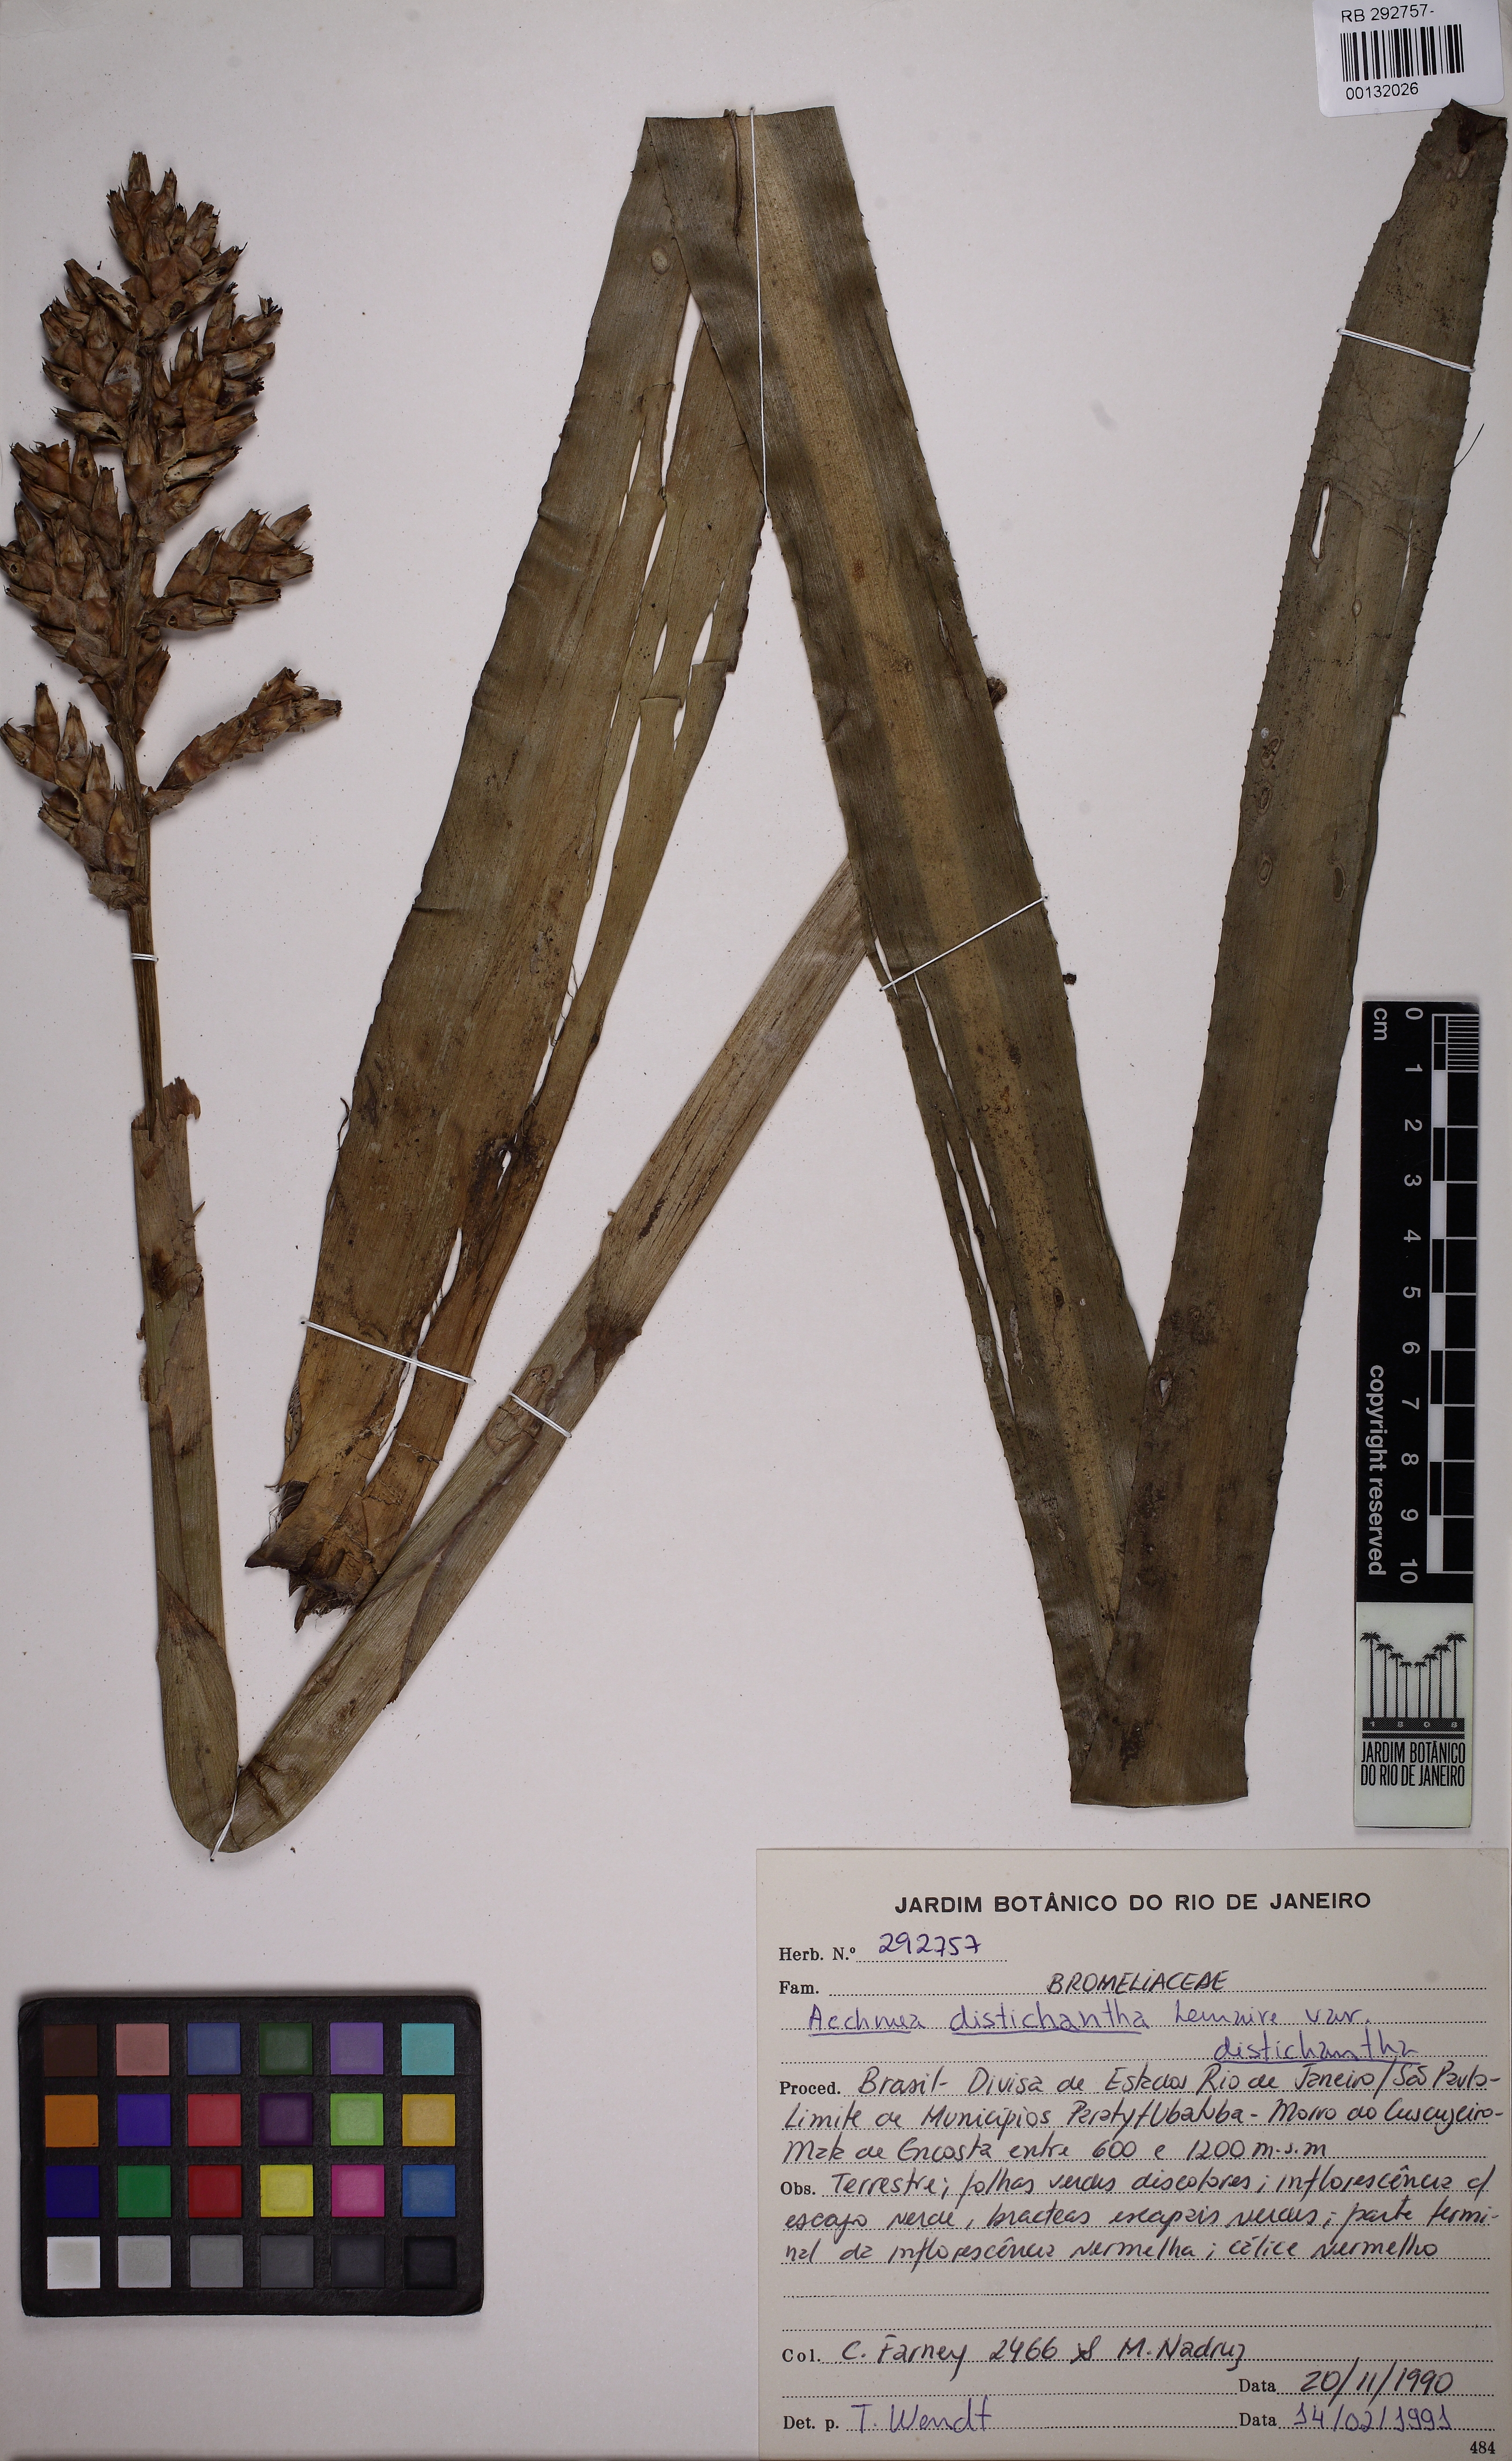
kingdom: Plantae
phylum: Tracheophyta
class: Liliopsida
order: Poales
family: Bromeliaceae
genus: Aechmea
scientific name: Aechmea distichantha
